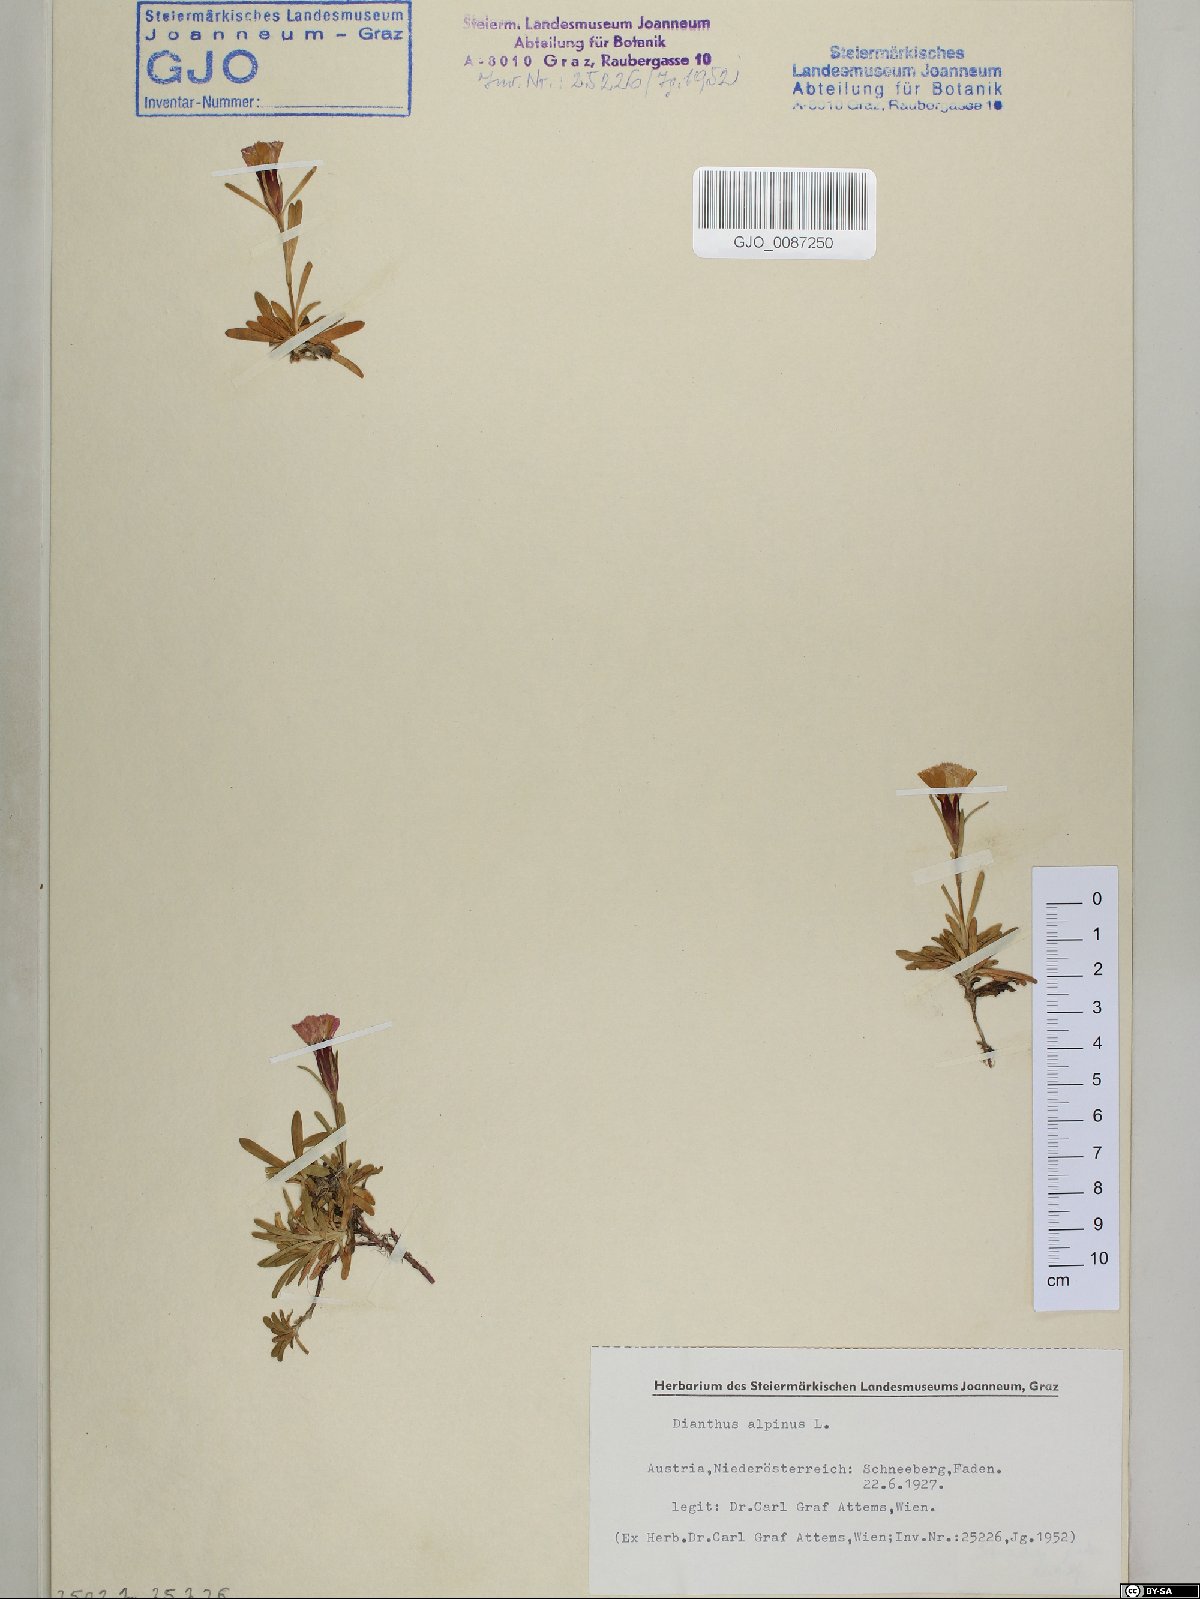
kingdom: Plantae
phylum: Tracheophyta
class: Magnoliopsida
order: Caryophyllales
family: Caryophyllaceae
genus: Dianthus
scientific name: Dianthus alpinus
